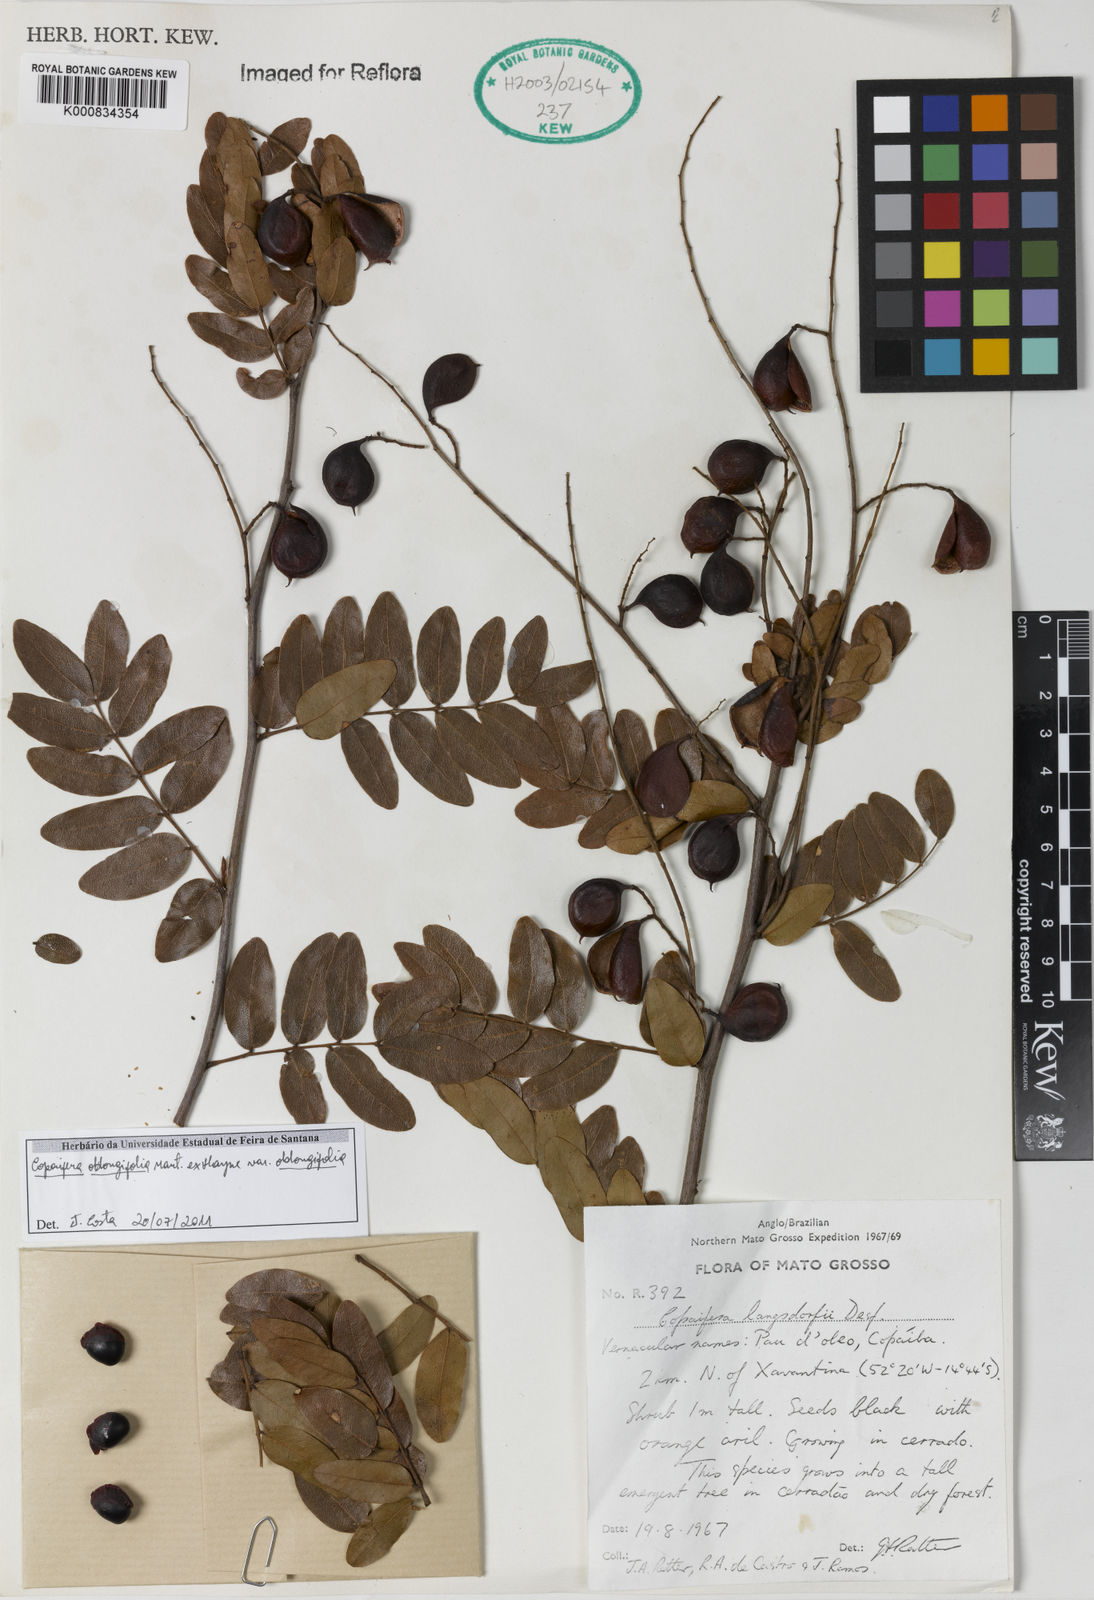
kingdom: Plantae
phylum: Tracheophyta
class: Magnoliopsida
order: Fabales
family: Fabaceae
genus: Copaifera
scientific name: Copaifera
